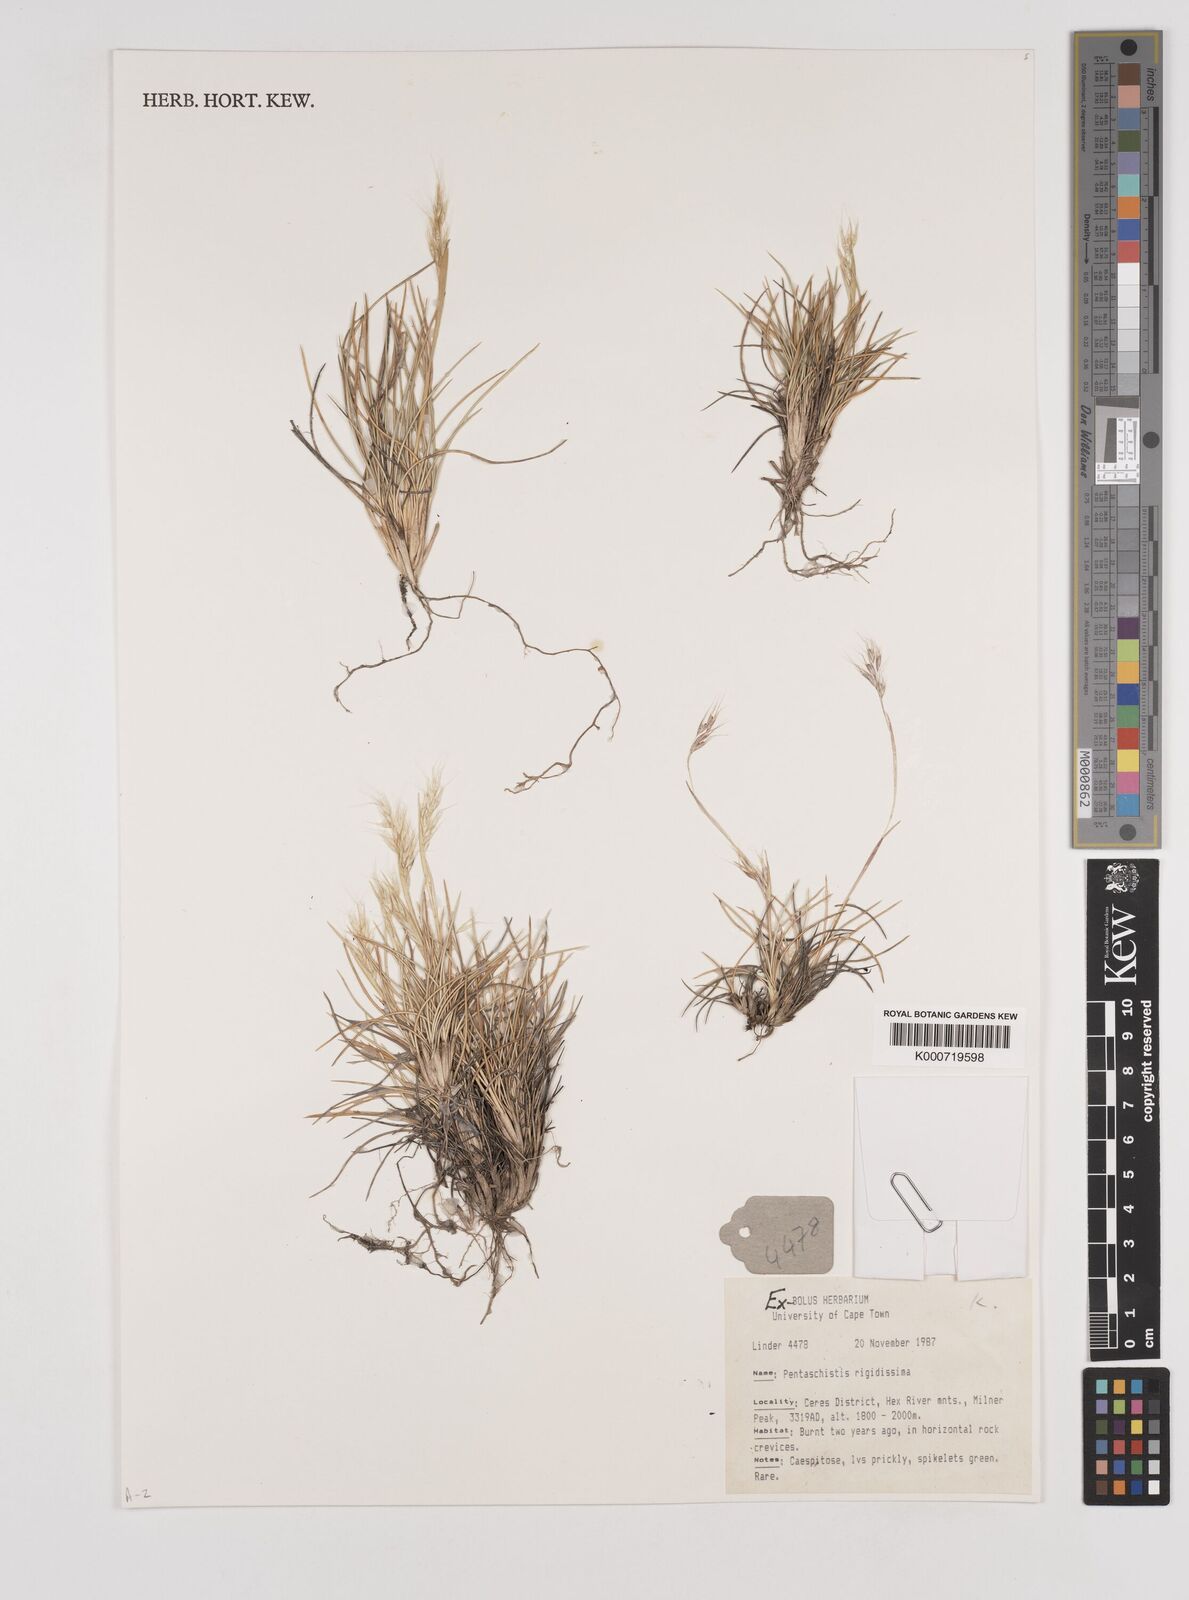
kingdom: Plantae
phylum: Tracheophyta
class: Liliopsida
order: Poales
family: Poaceae
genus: Pentameris
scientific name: Pentameris rigidissima
